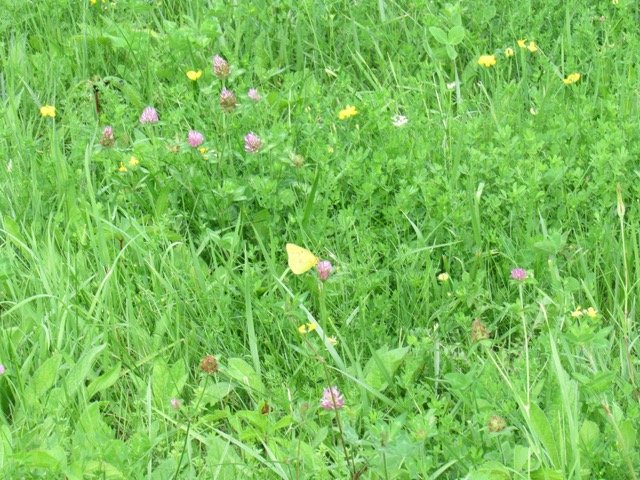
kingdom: Animalia
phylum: Arthropoda
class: Insecta
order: Lepidoptera
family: Pieridae
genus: Colias
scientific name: Colias philodice
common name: Clouded Sulphur
